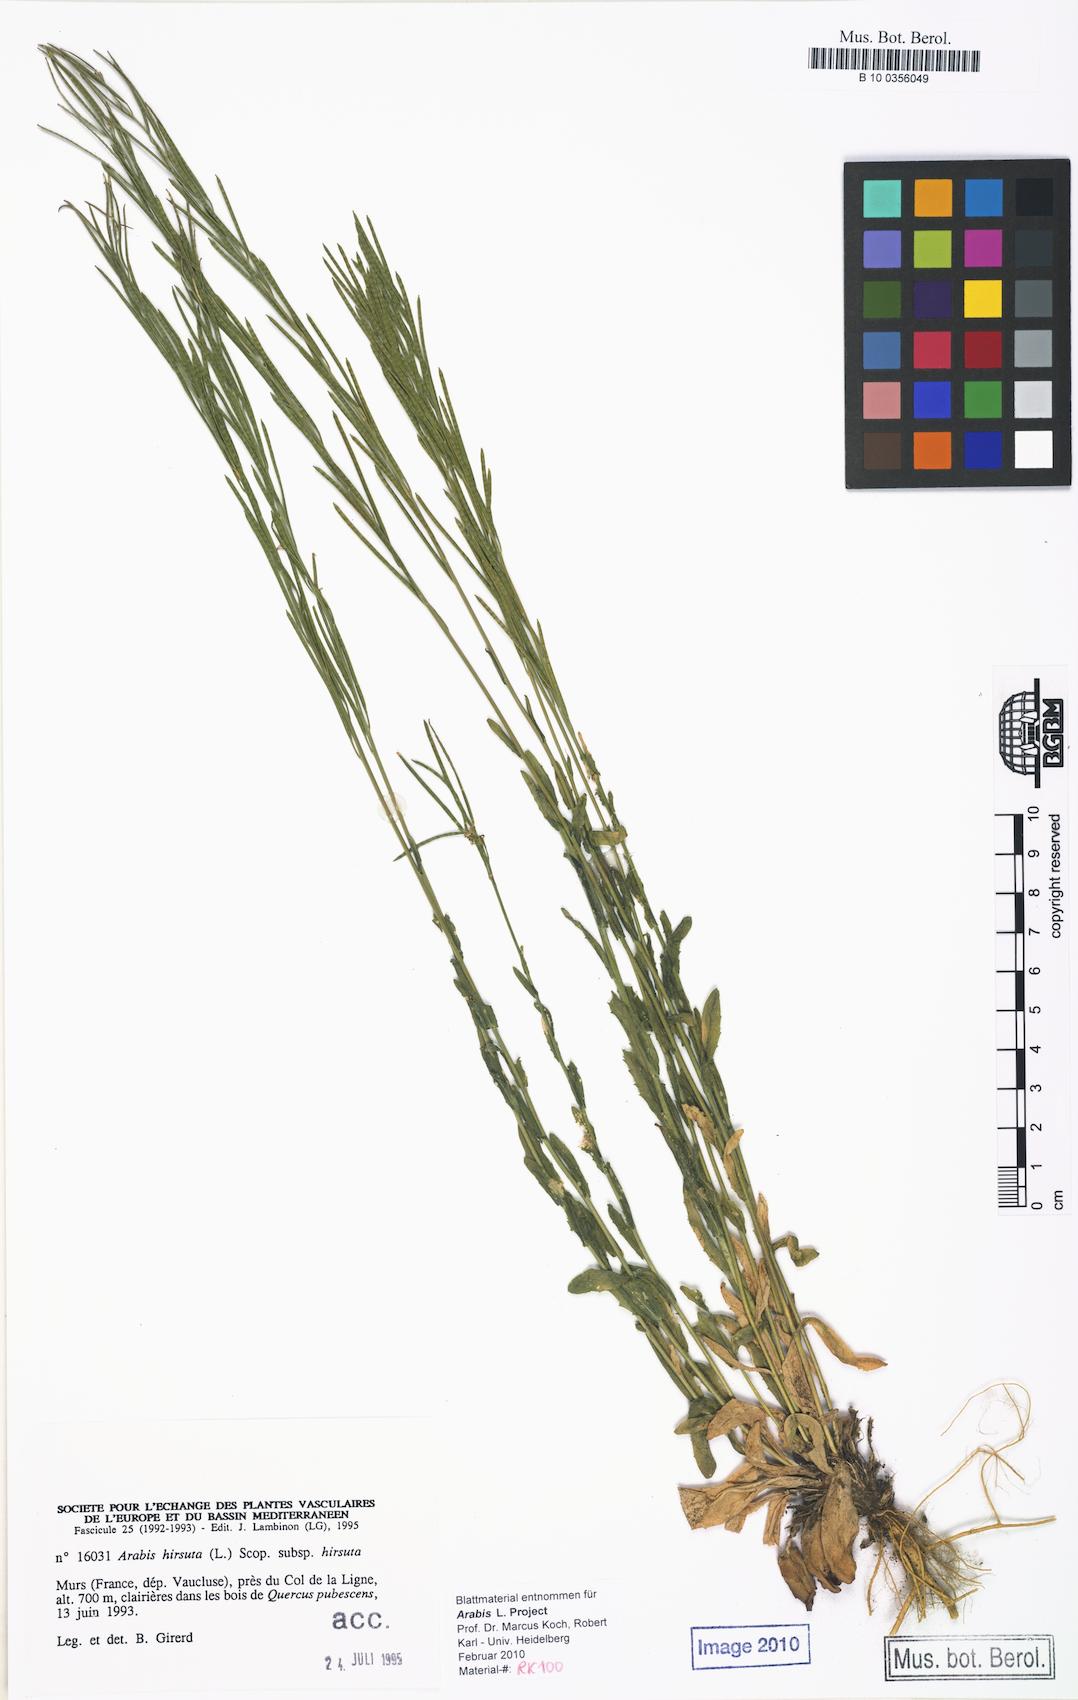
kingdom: Plantae
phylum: Tracheophyta
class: Magnoliopsida
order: Brassicales
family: Brassicaceae
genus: Arabis
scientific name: Arabis hirsuta
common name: Hairy rock-cress
